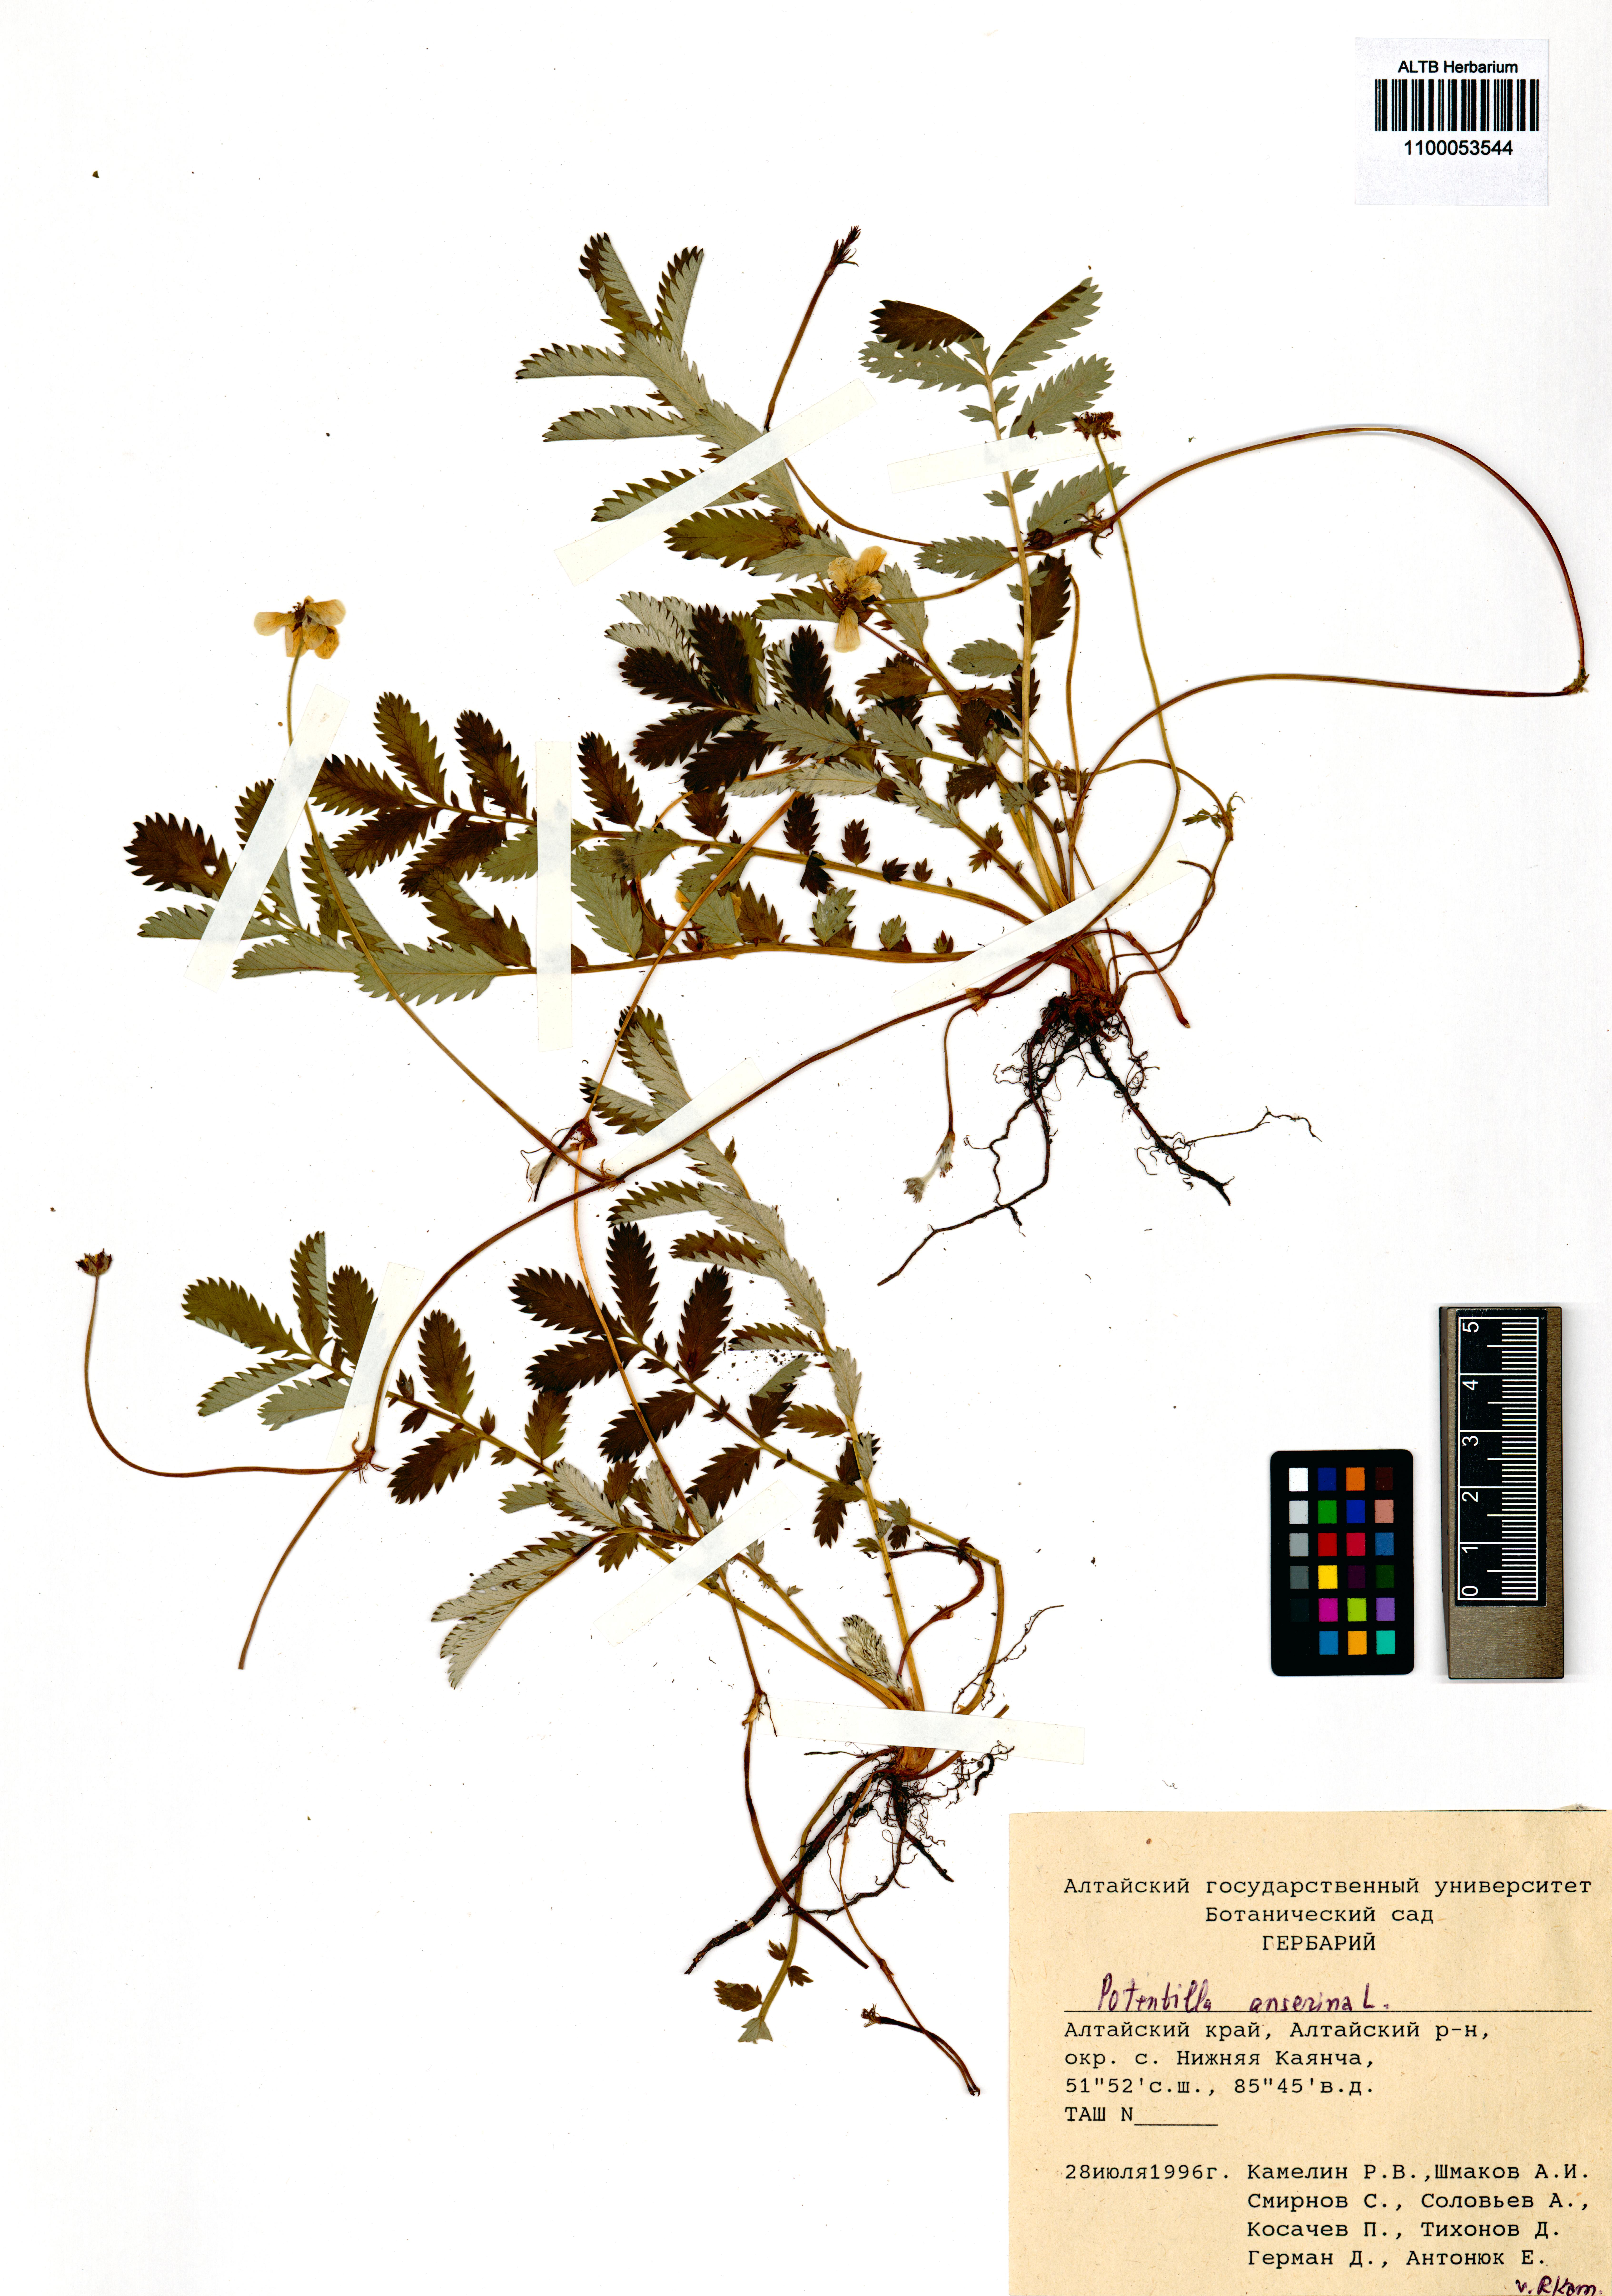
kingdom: Plantae
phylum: Tracheophyta
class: Magnoliopsida
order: Rosales
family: Rosaceae
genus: Argentina
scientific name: Argentina anserina
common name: Common silverweed
